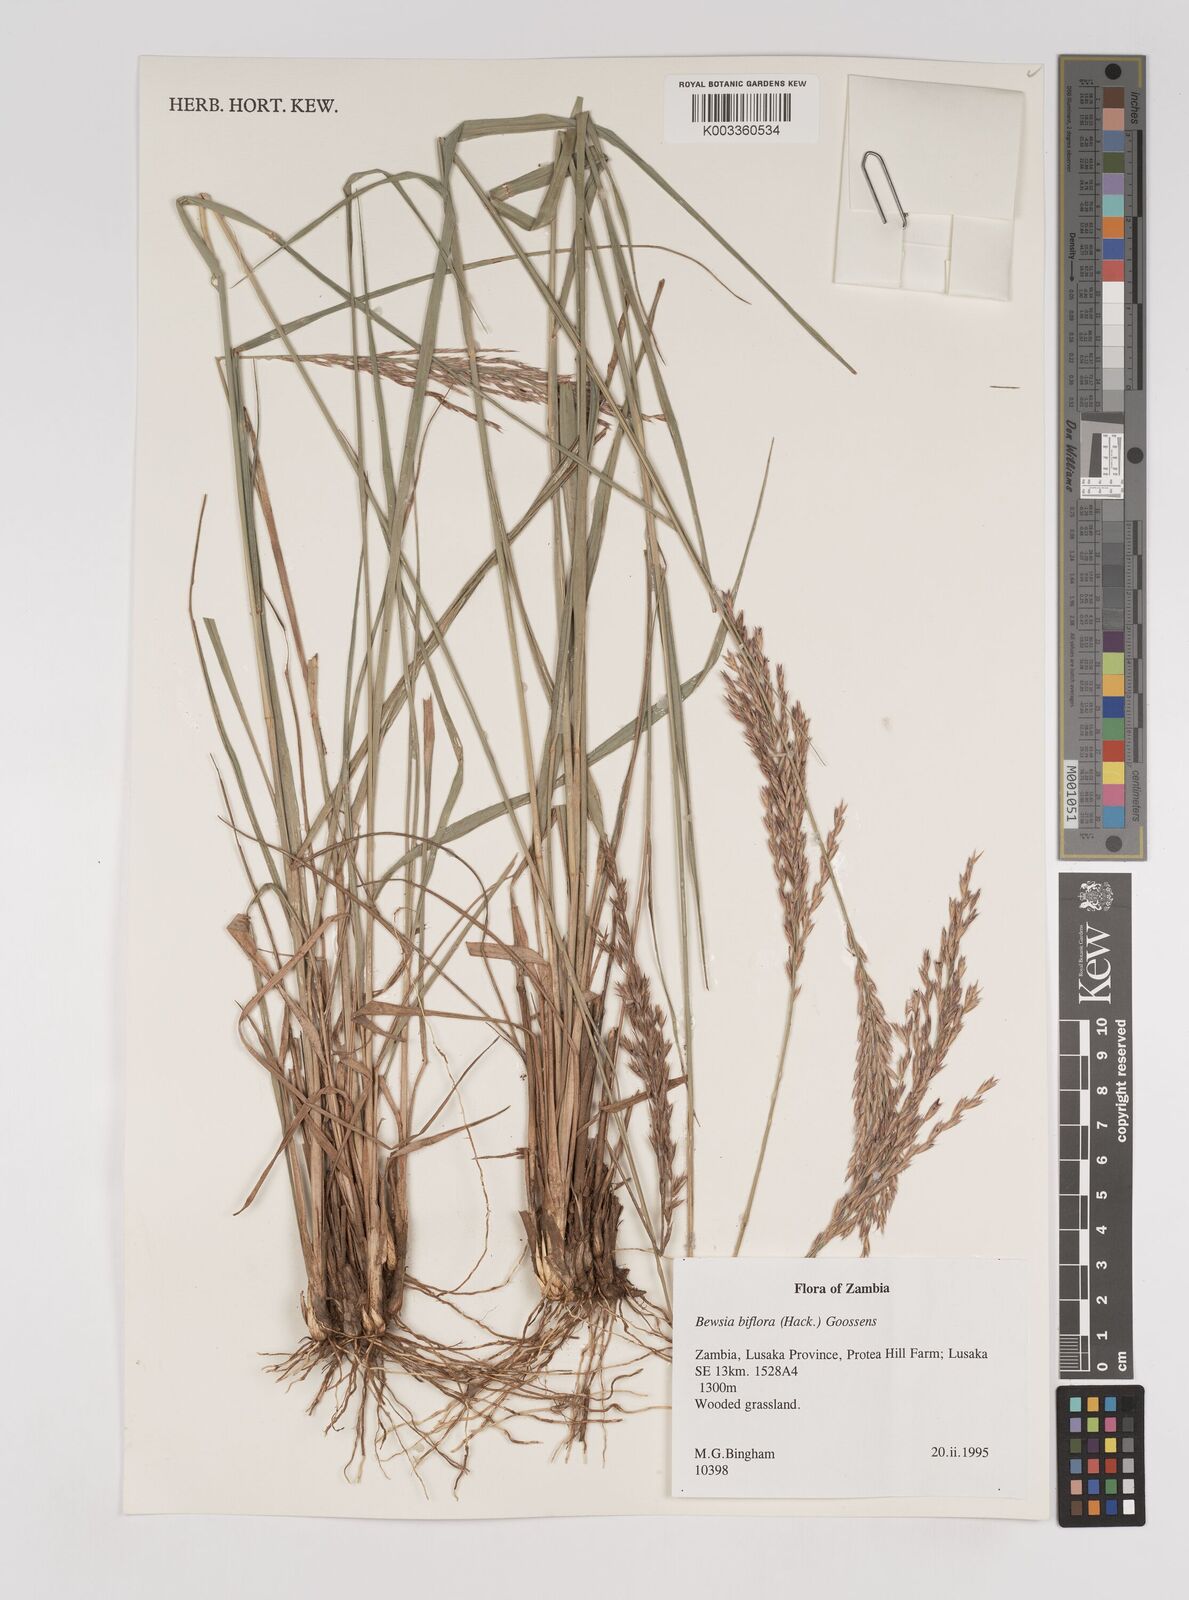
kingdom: Plantae
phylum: Tracheophyta
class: Liliopsida
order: Poales
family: Poaceae
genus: Bewsia
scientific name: Bewsia biflora
